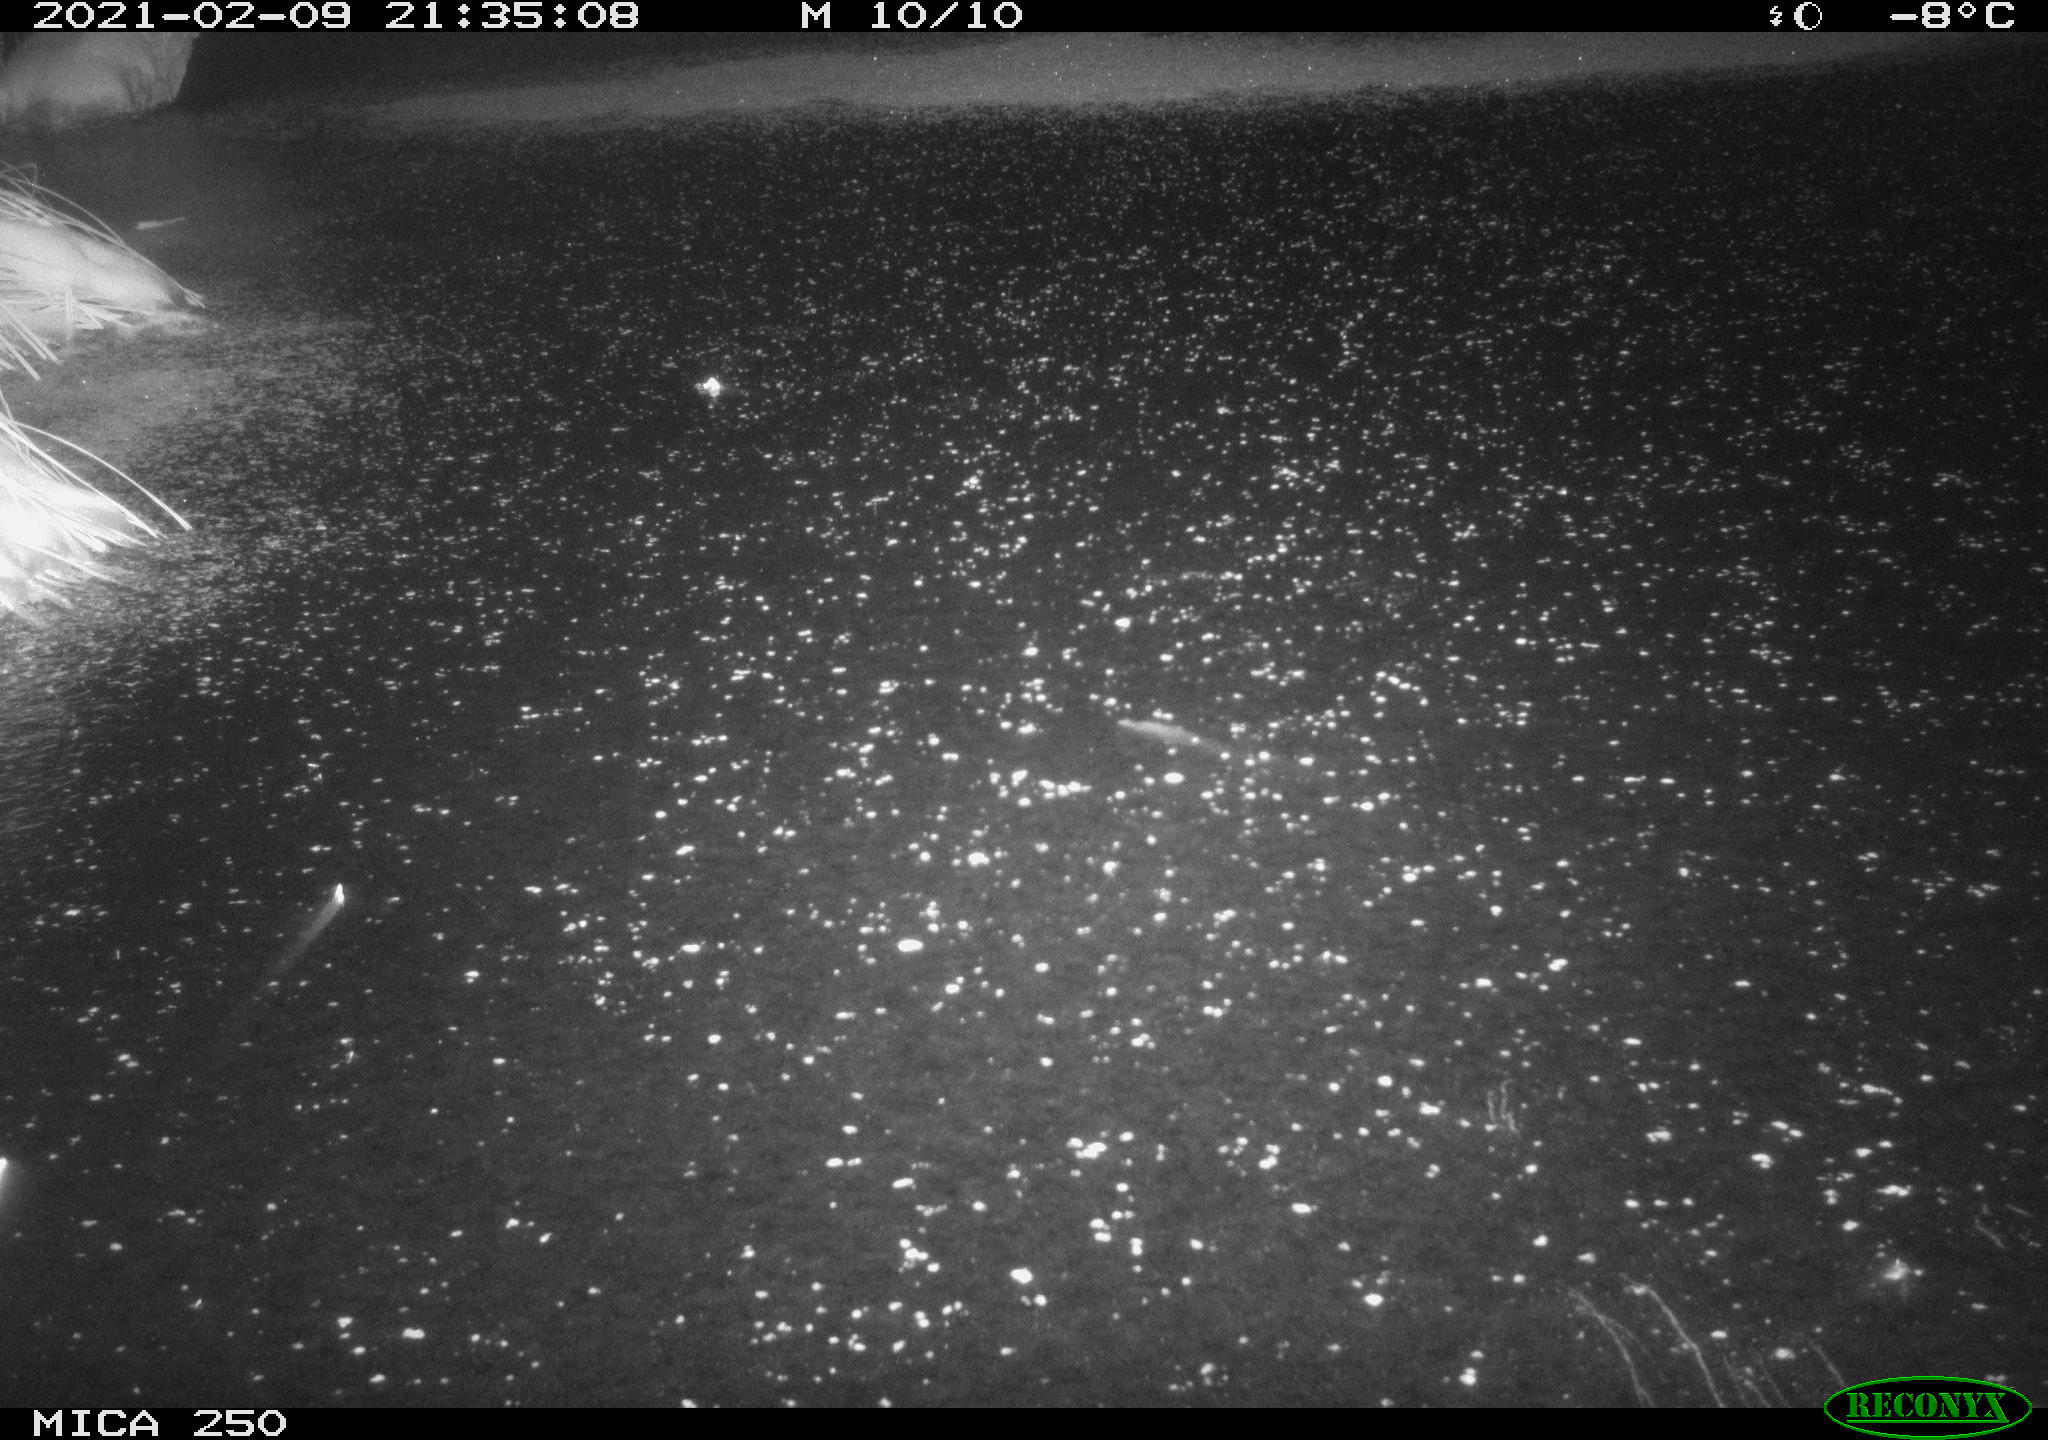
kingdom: Animalia
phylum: Chordata
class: Mammalia
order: Carnivora
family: Canidae
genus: Vulpes
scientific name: Vulpes vulpes
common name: Red fox
